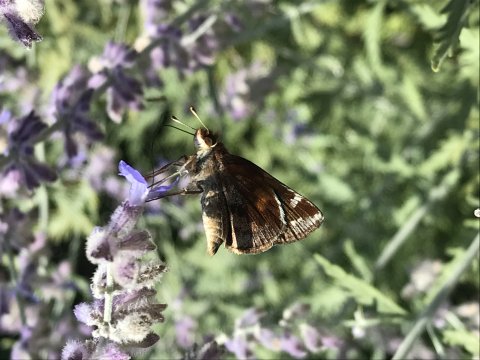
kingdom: Animalia
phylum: Arthropoda
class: Insecta
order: Lepidoptera
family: Hesperiidae
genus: Lon
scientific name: Lon zabulon
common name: Zabulon Skipper
